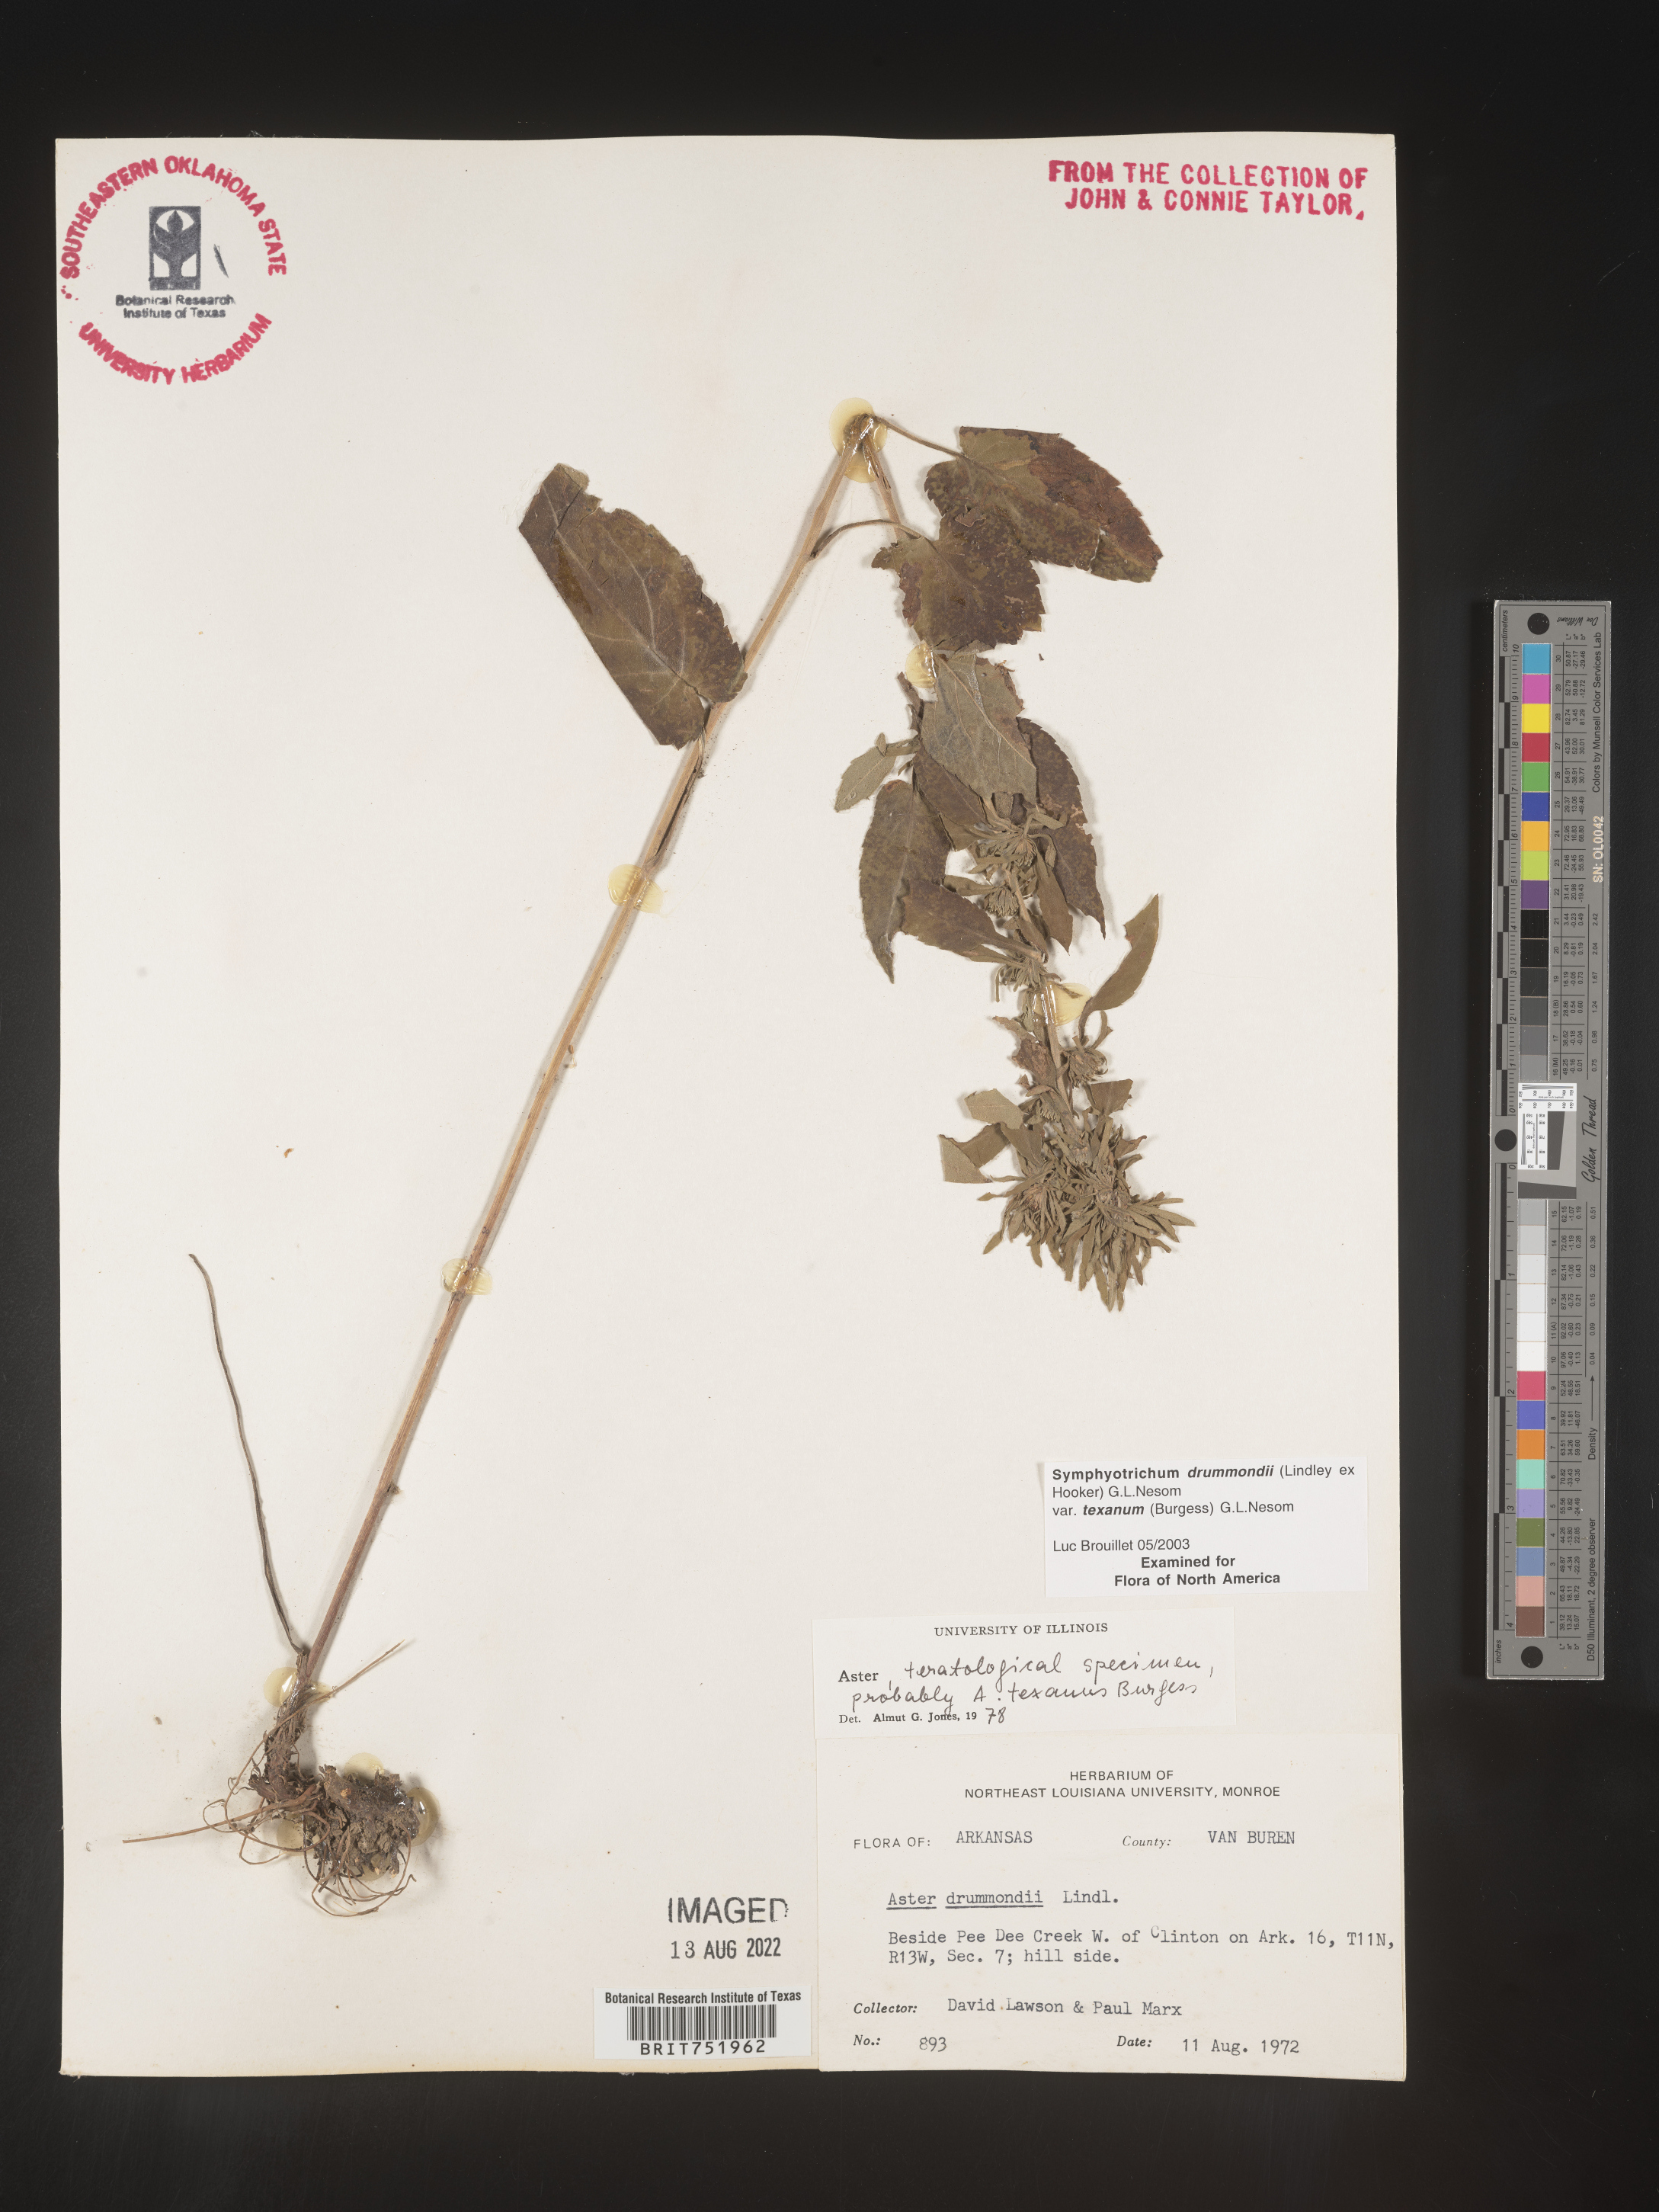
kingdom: Plantae
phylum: Tracheophyta
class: Magnoliopsida
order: Asterales
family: Asteraceae
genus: Symphyotrichum
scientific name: Symphyotrichum drummondii
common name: Drummond's aster
